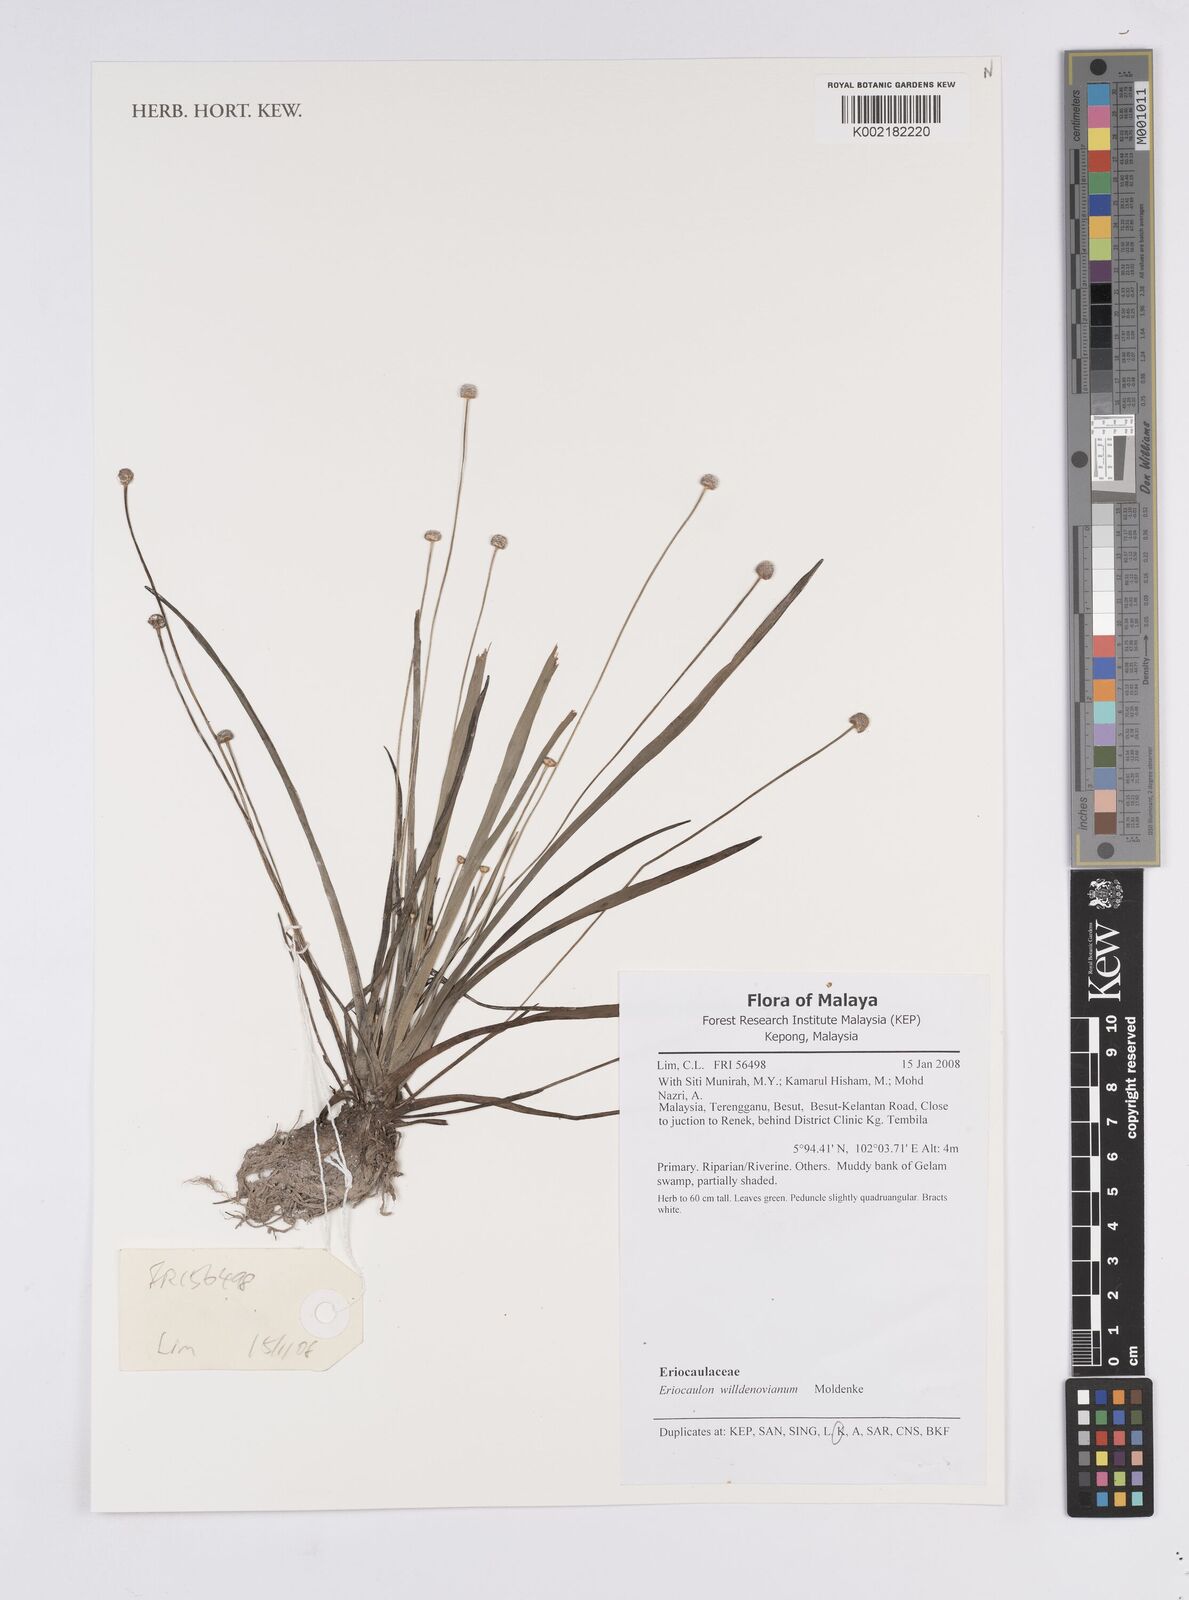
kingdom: Plantae
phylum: Tracheophyta
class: Liliopsida
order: Poales
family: Eriocaulaceae
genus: Eriocaulon
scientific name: Eriocaulon willdenovianum
